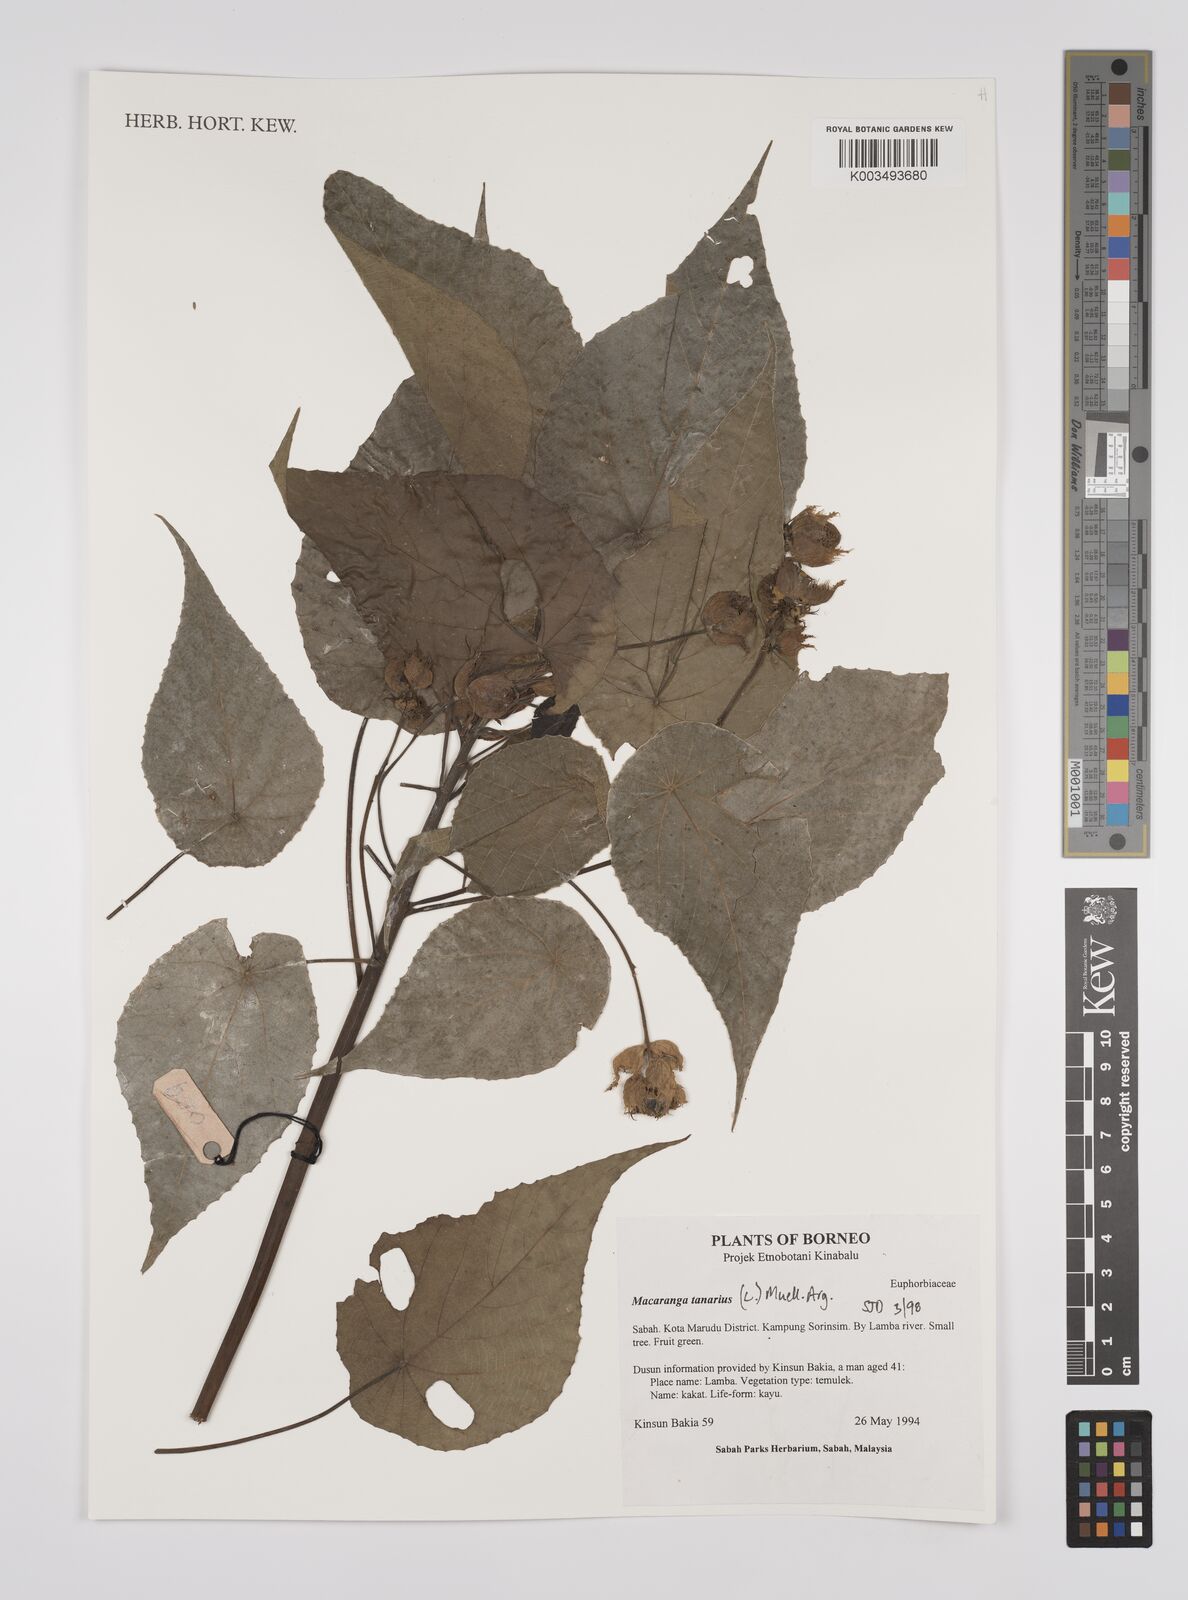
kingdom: Plantae
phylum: Tracheophyta
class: Magnoliopsida
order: Malpighiales
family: Euphorbiaceae
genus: Macaranga
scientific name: Macaranga tanarius
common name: Parasol leaf tree
